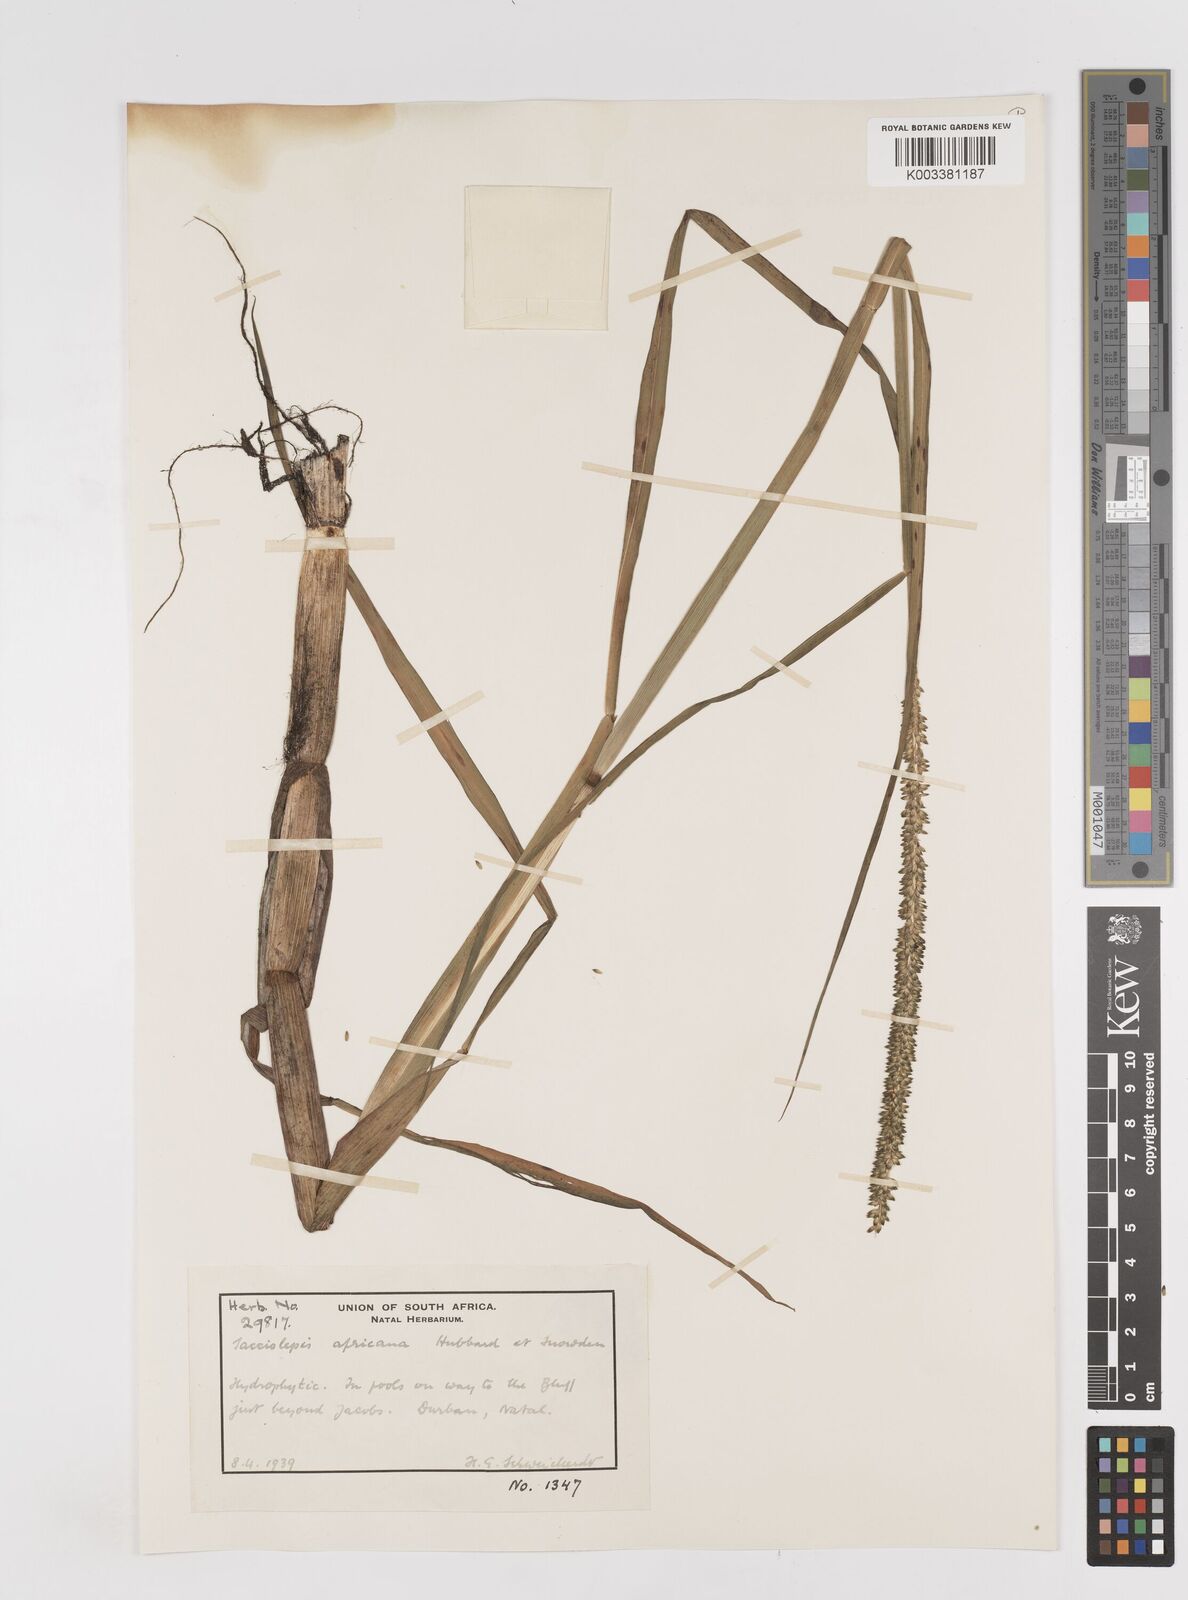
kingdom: Plantae
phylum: Tracheophyta
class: Liliopsida
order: Poales
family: Poaceae
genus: Sacciolepis
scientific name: Sacciolepis africana
